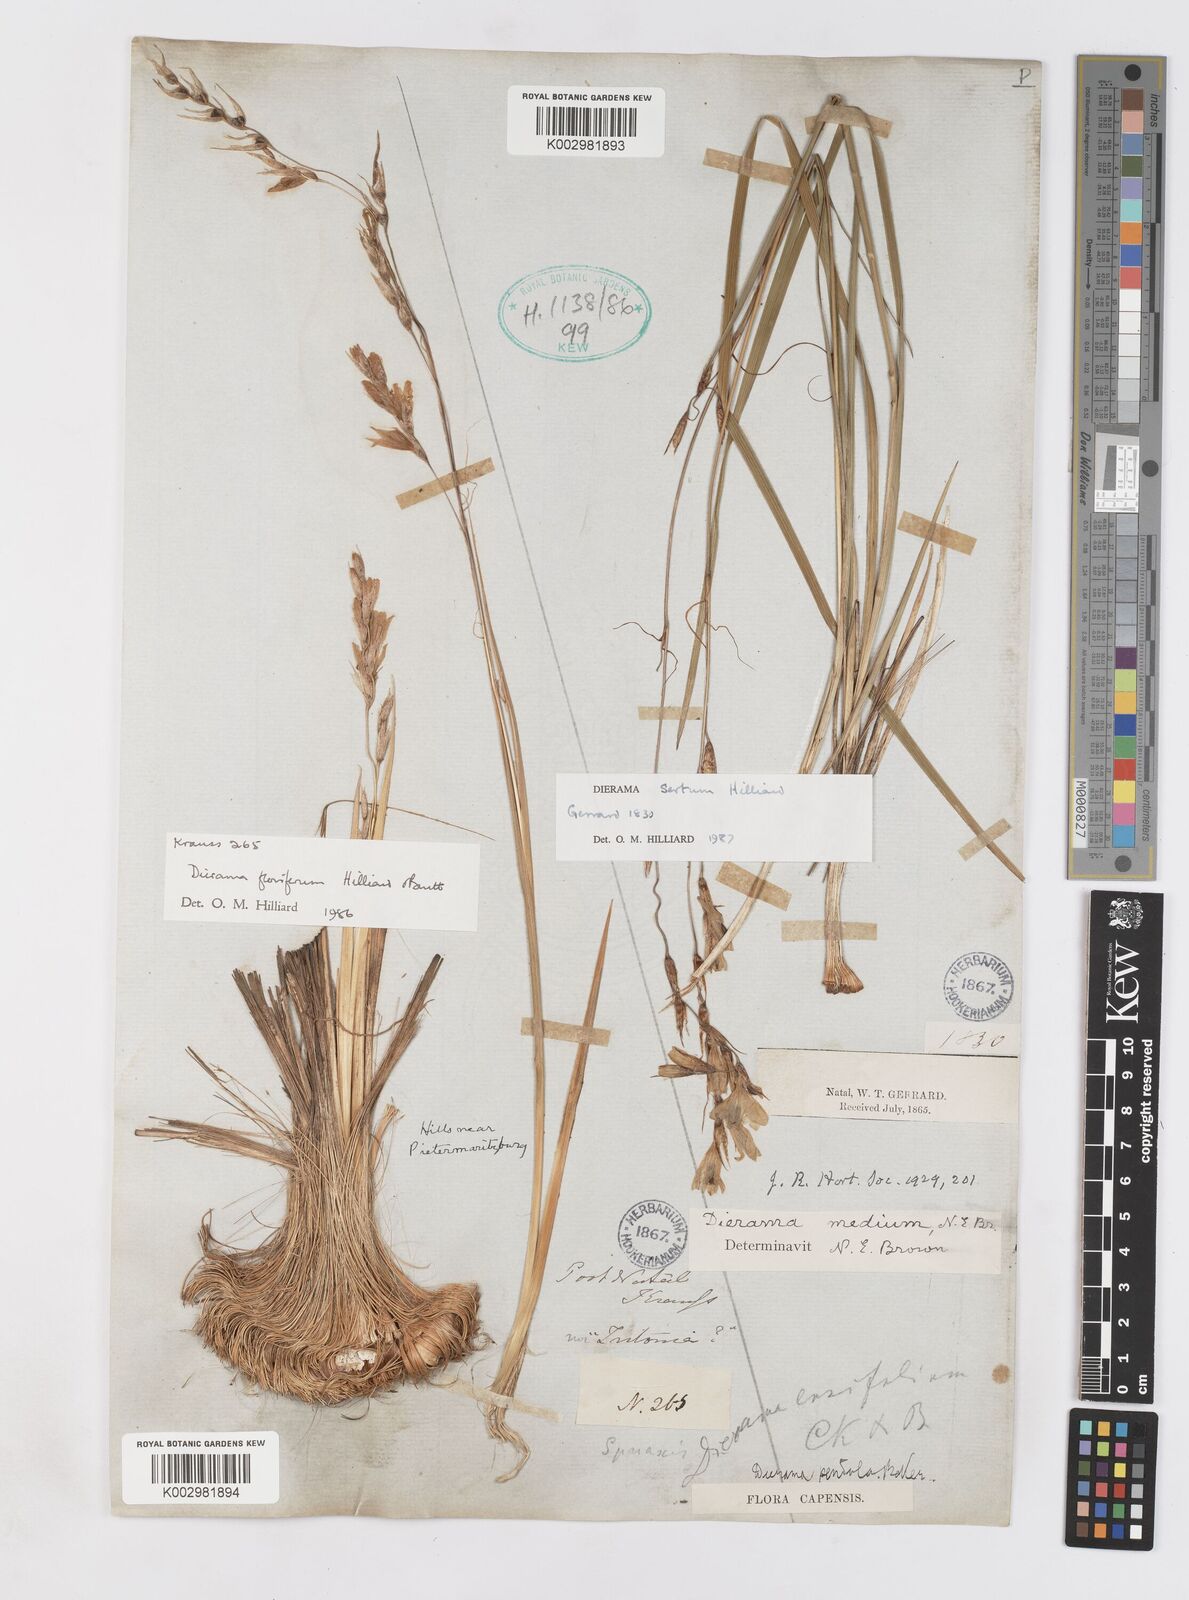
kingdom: Plantae
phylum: Tracheophyta
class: Liliopsida
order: Asparagales
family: Iridaceae
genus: Dierama
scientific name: Dierama sertum
